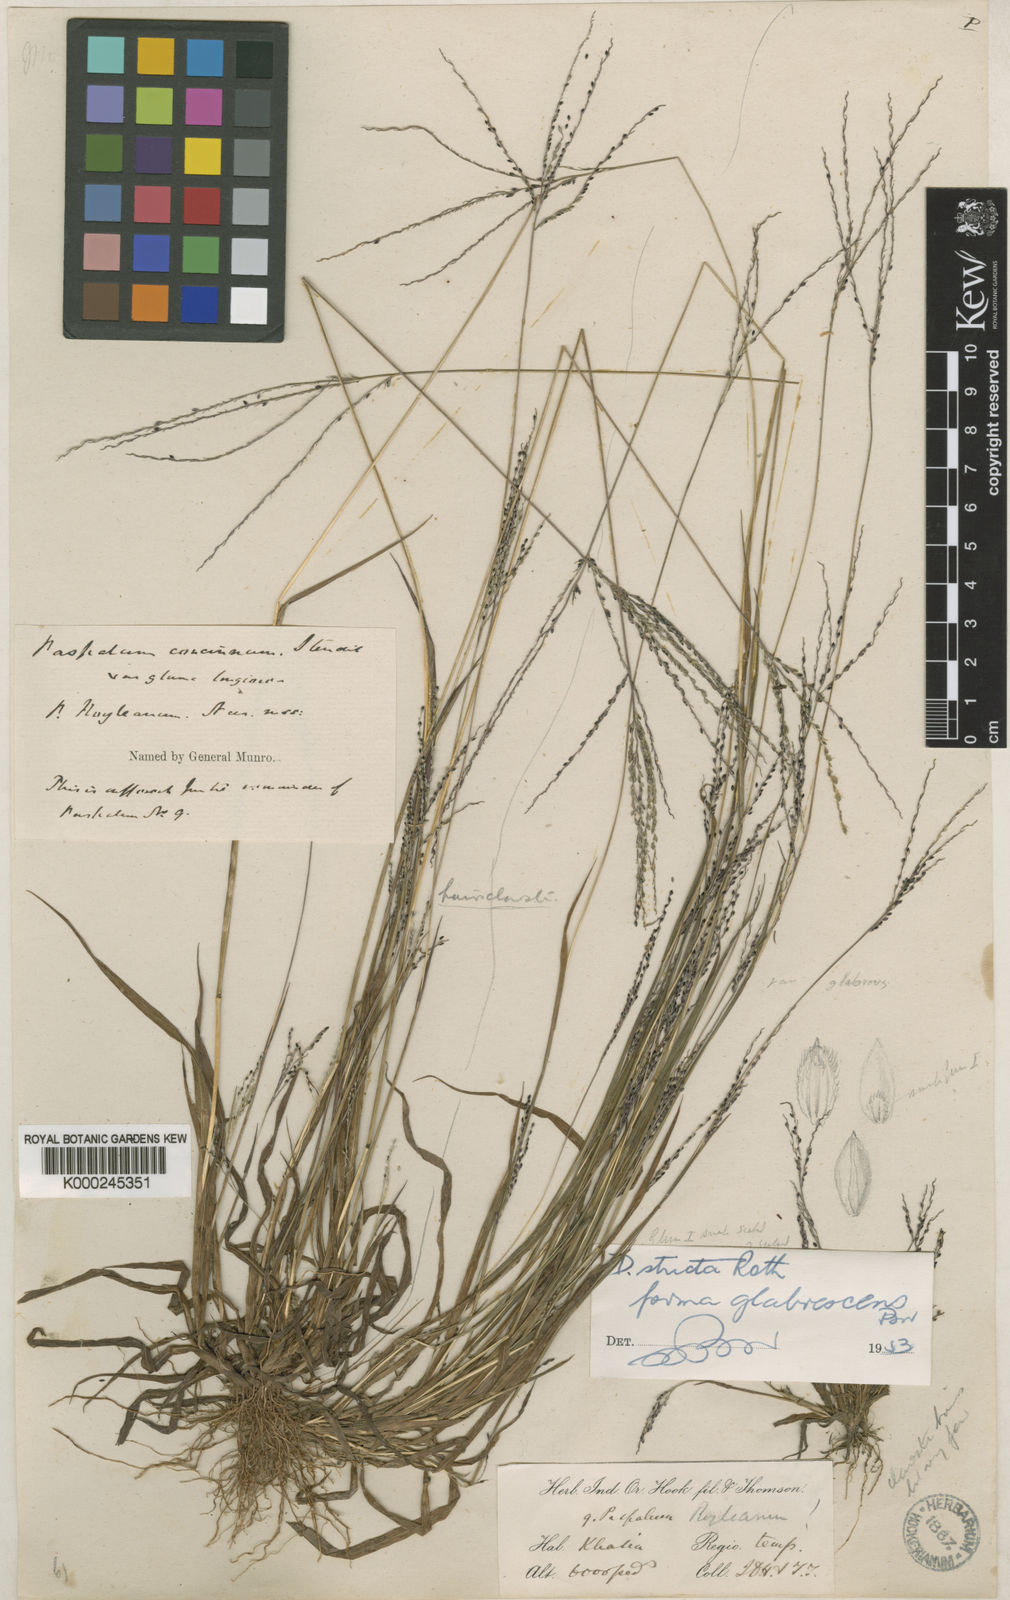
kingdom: Plantae
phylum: Tracheophyta
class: Liliopsida
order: Poales
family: Poaceae
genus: Digitaria
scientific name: Digitaria stricta
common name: Crabgrass
